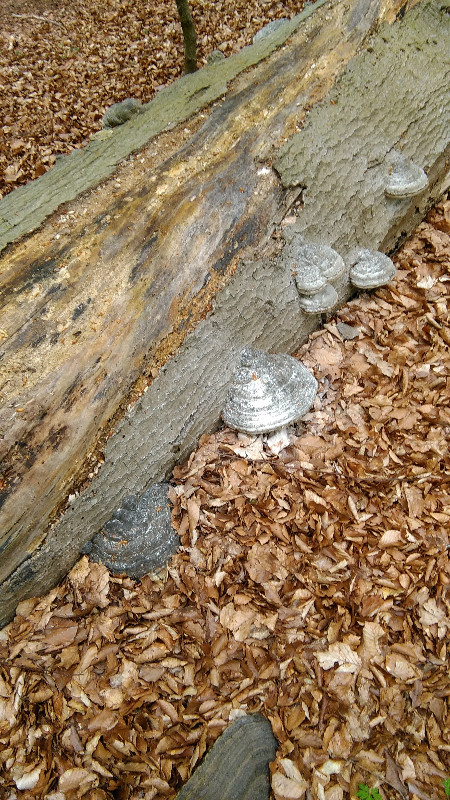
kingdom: Fungi
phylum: Basidiomycota
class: Agaricomycetes
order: Polyporales
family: Polyporaceae
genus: Fomes
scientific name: Fomes fomentarius
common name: tøndersvamp
